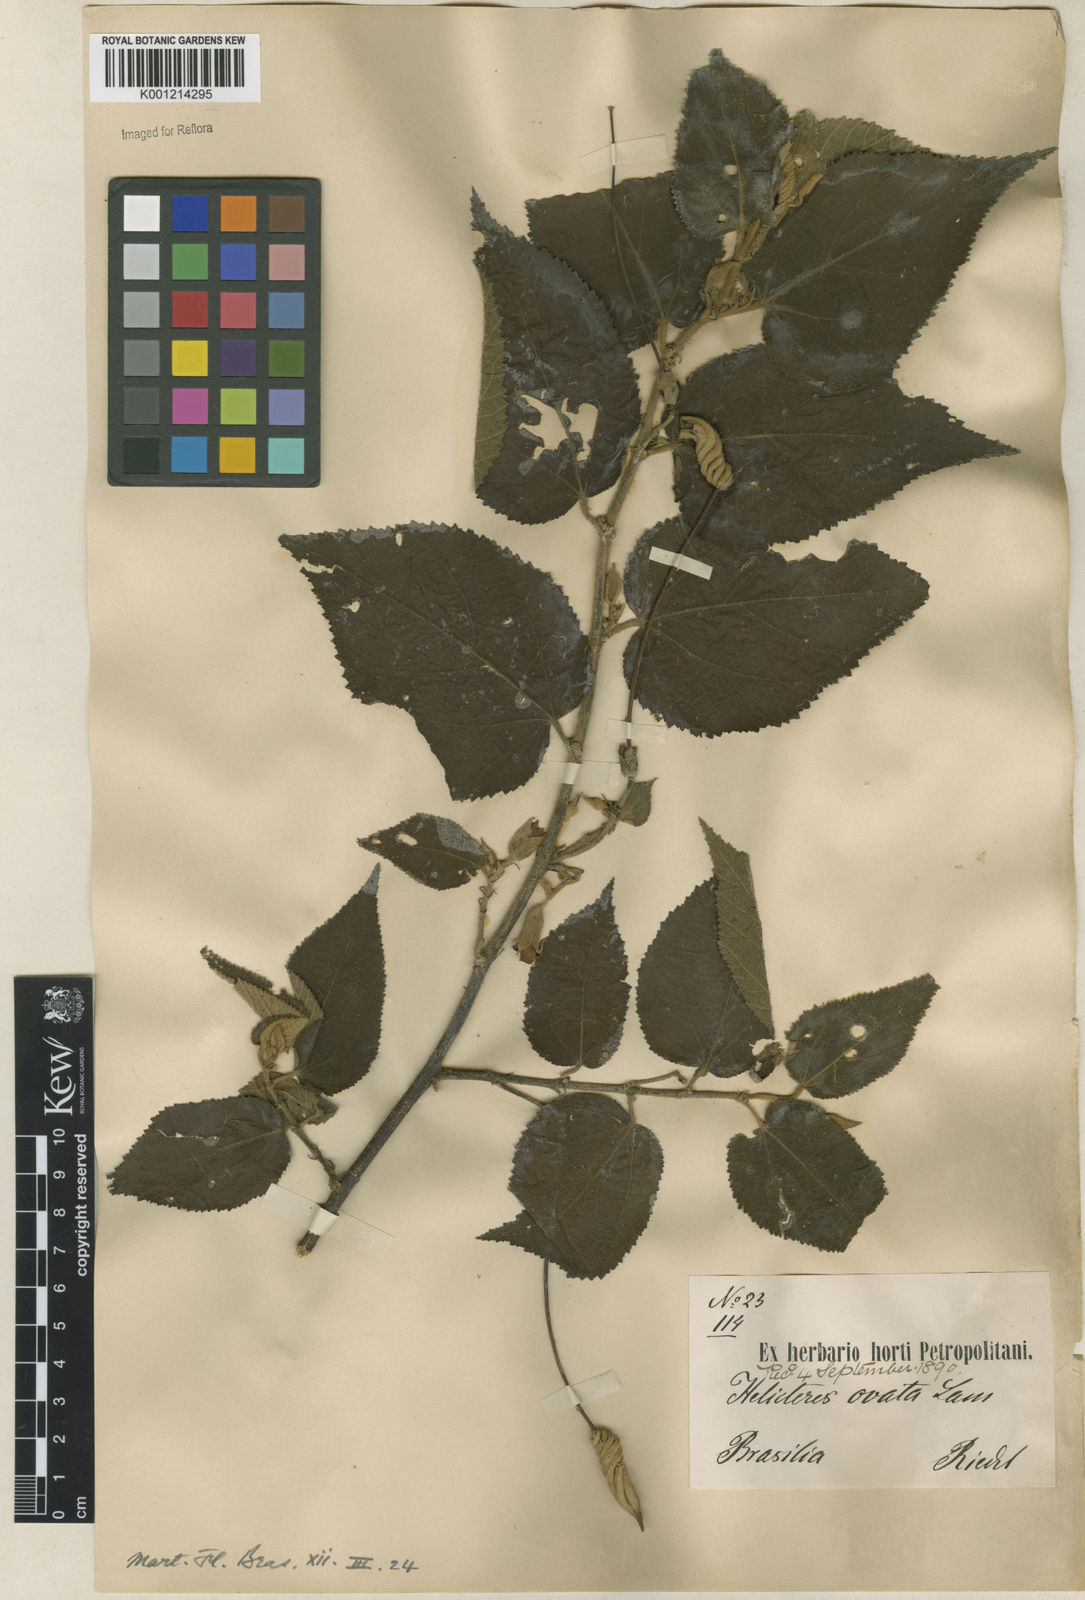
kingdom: Plantae
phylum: Tracheophyta
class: Magnoliopsida
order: Malvales
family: Malvaceae
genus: Helicteres
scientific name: Helicteres ovata
